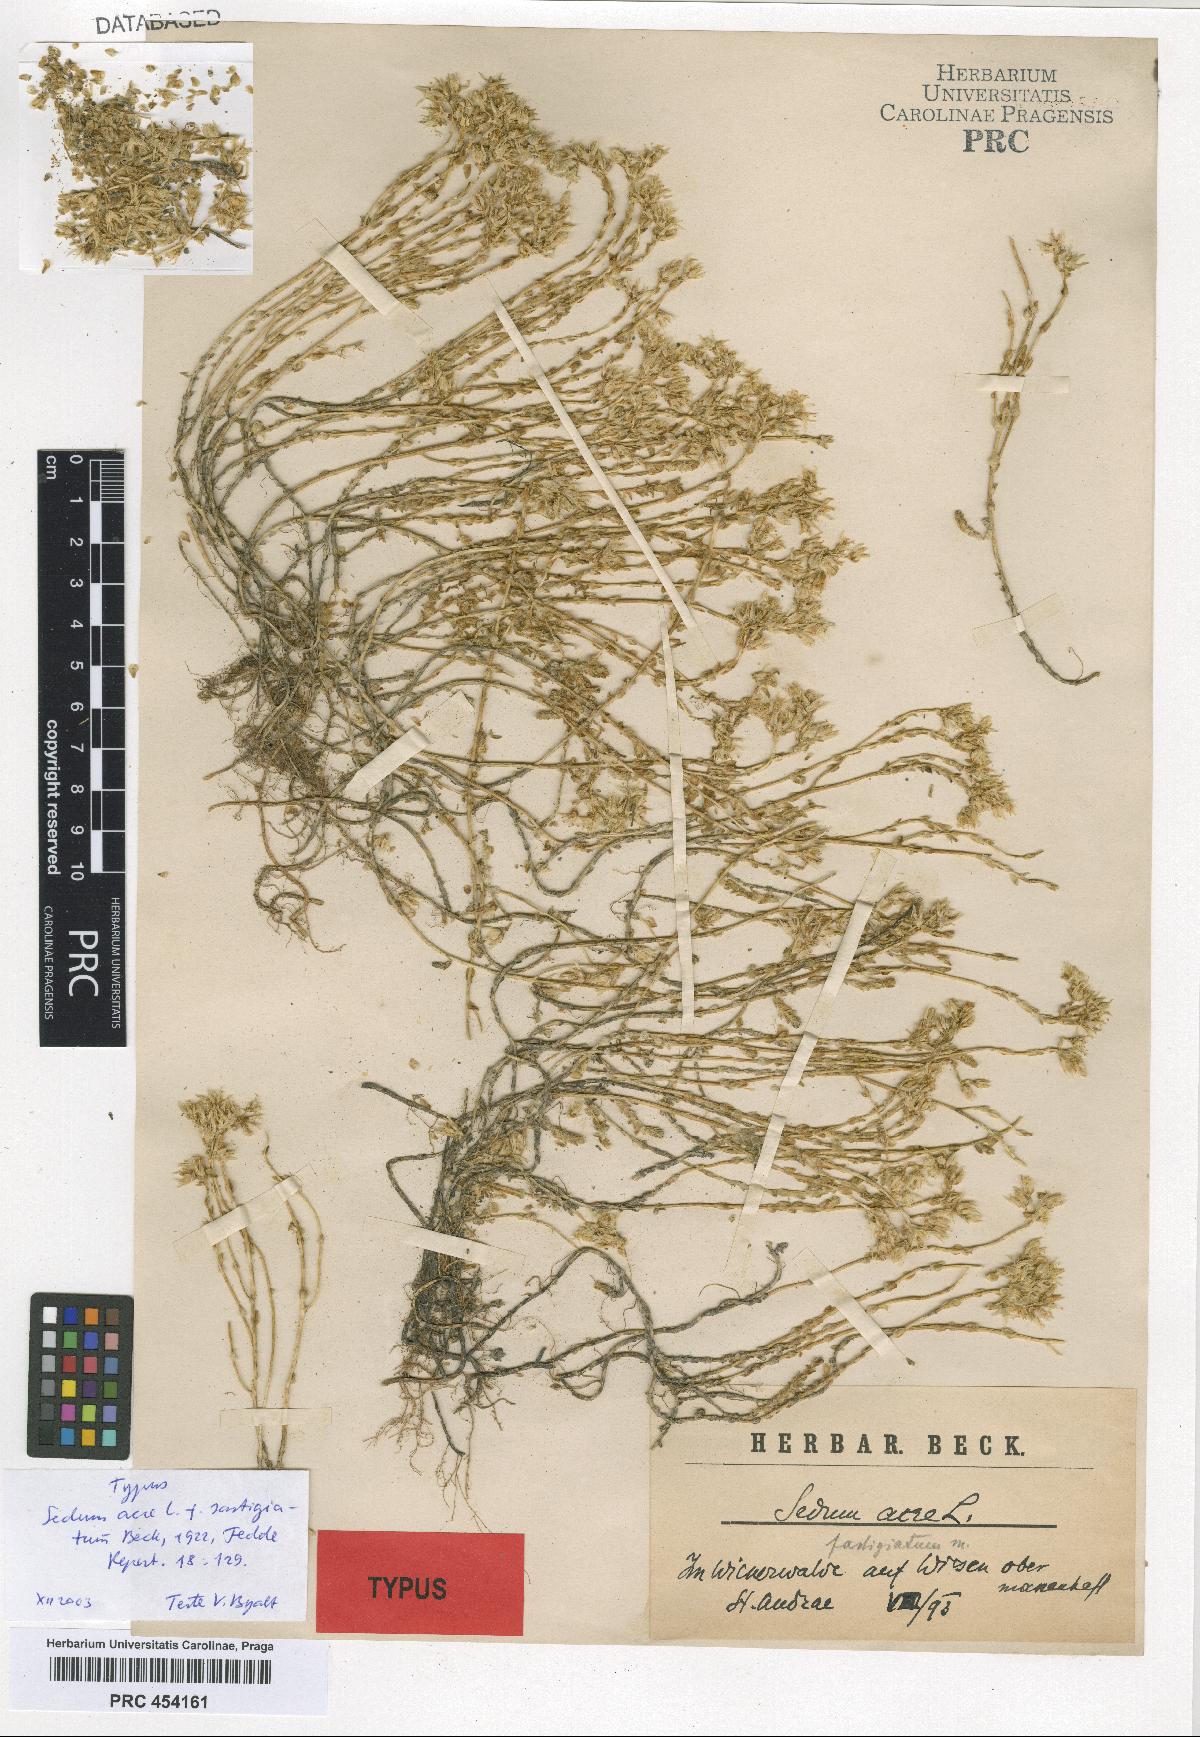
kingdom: Plantae
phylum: Tracheophyta
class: Magnoliopsida
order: Saxifragales
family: Crassulaceae
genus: Sedum
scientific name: Sedum acre
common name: Biting stonecrop
